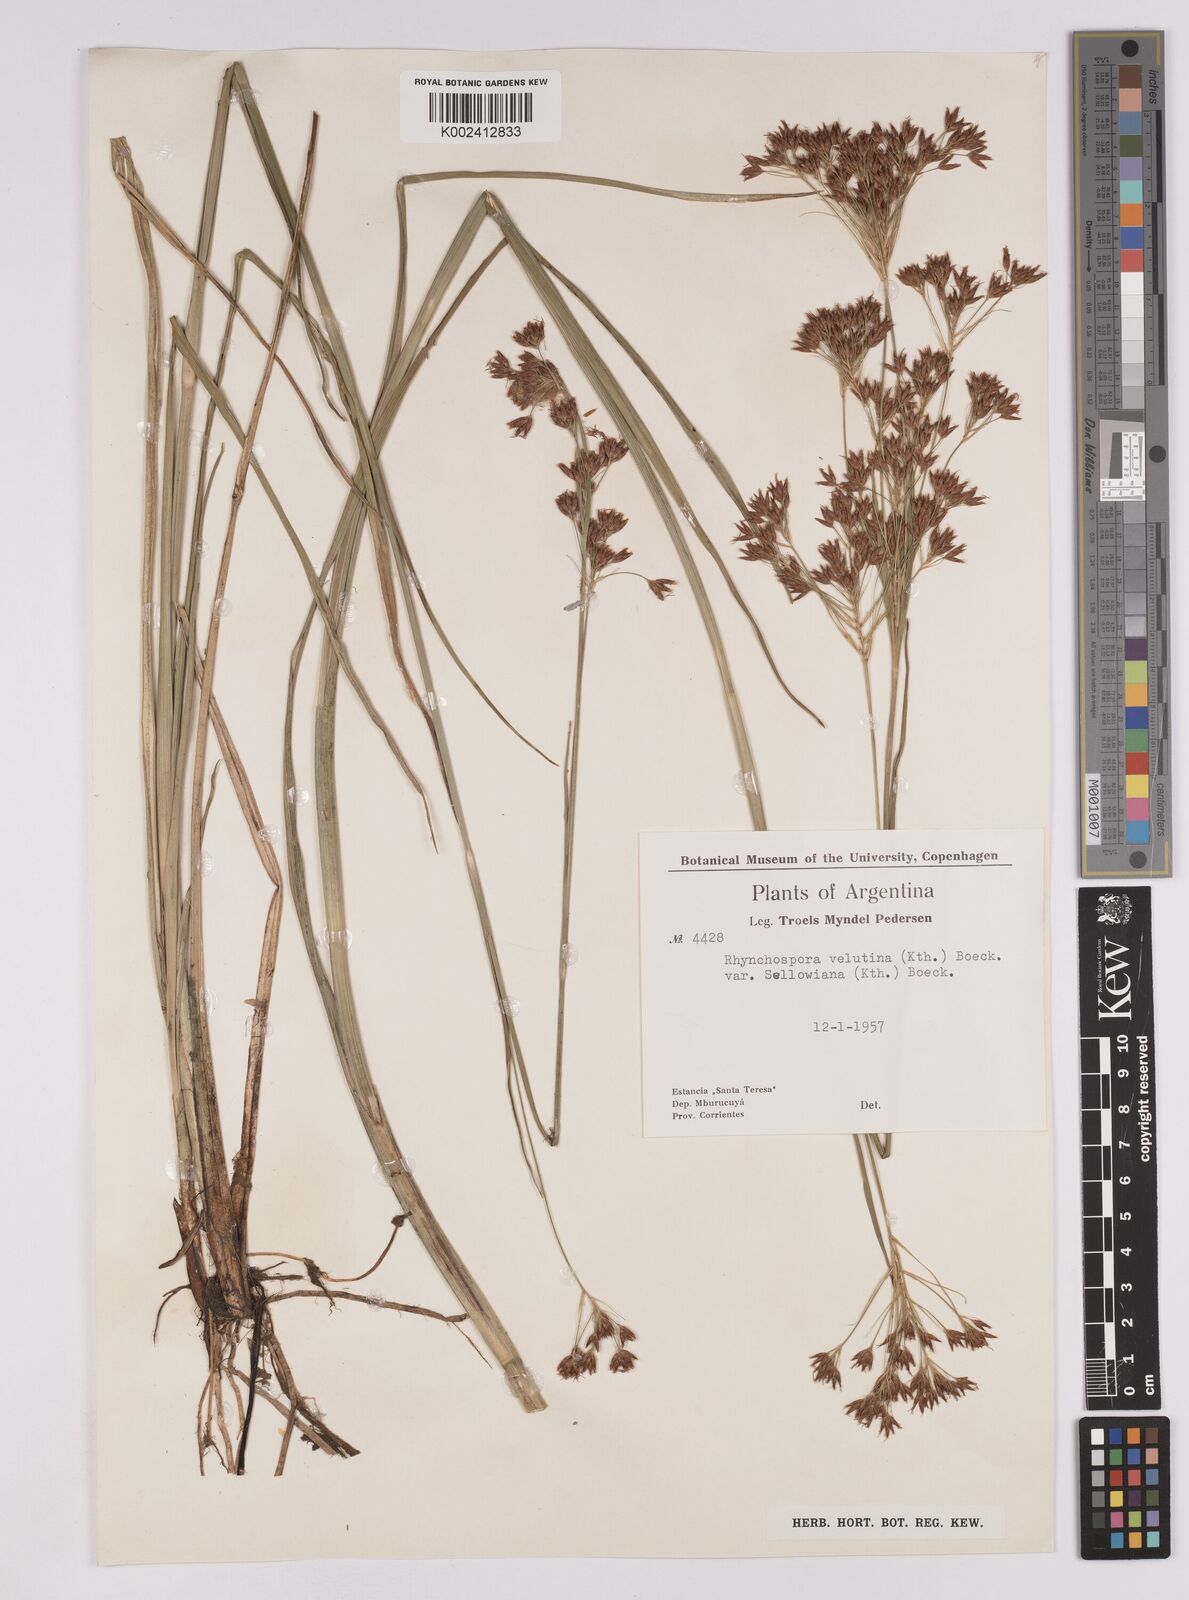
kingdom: Plantae
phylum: Tracheophyta
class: Liliopsida
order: Poales
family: Cyperaceae
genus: Rhynchospora
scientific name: Rhynchospora robusta
